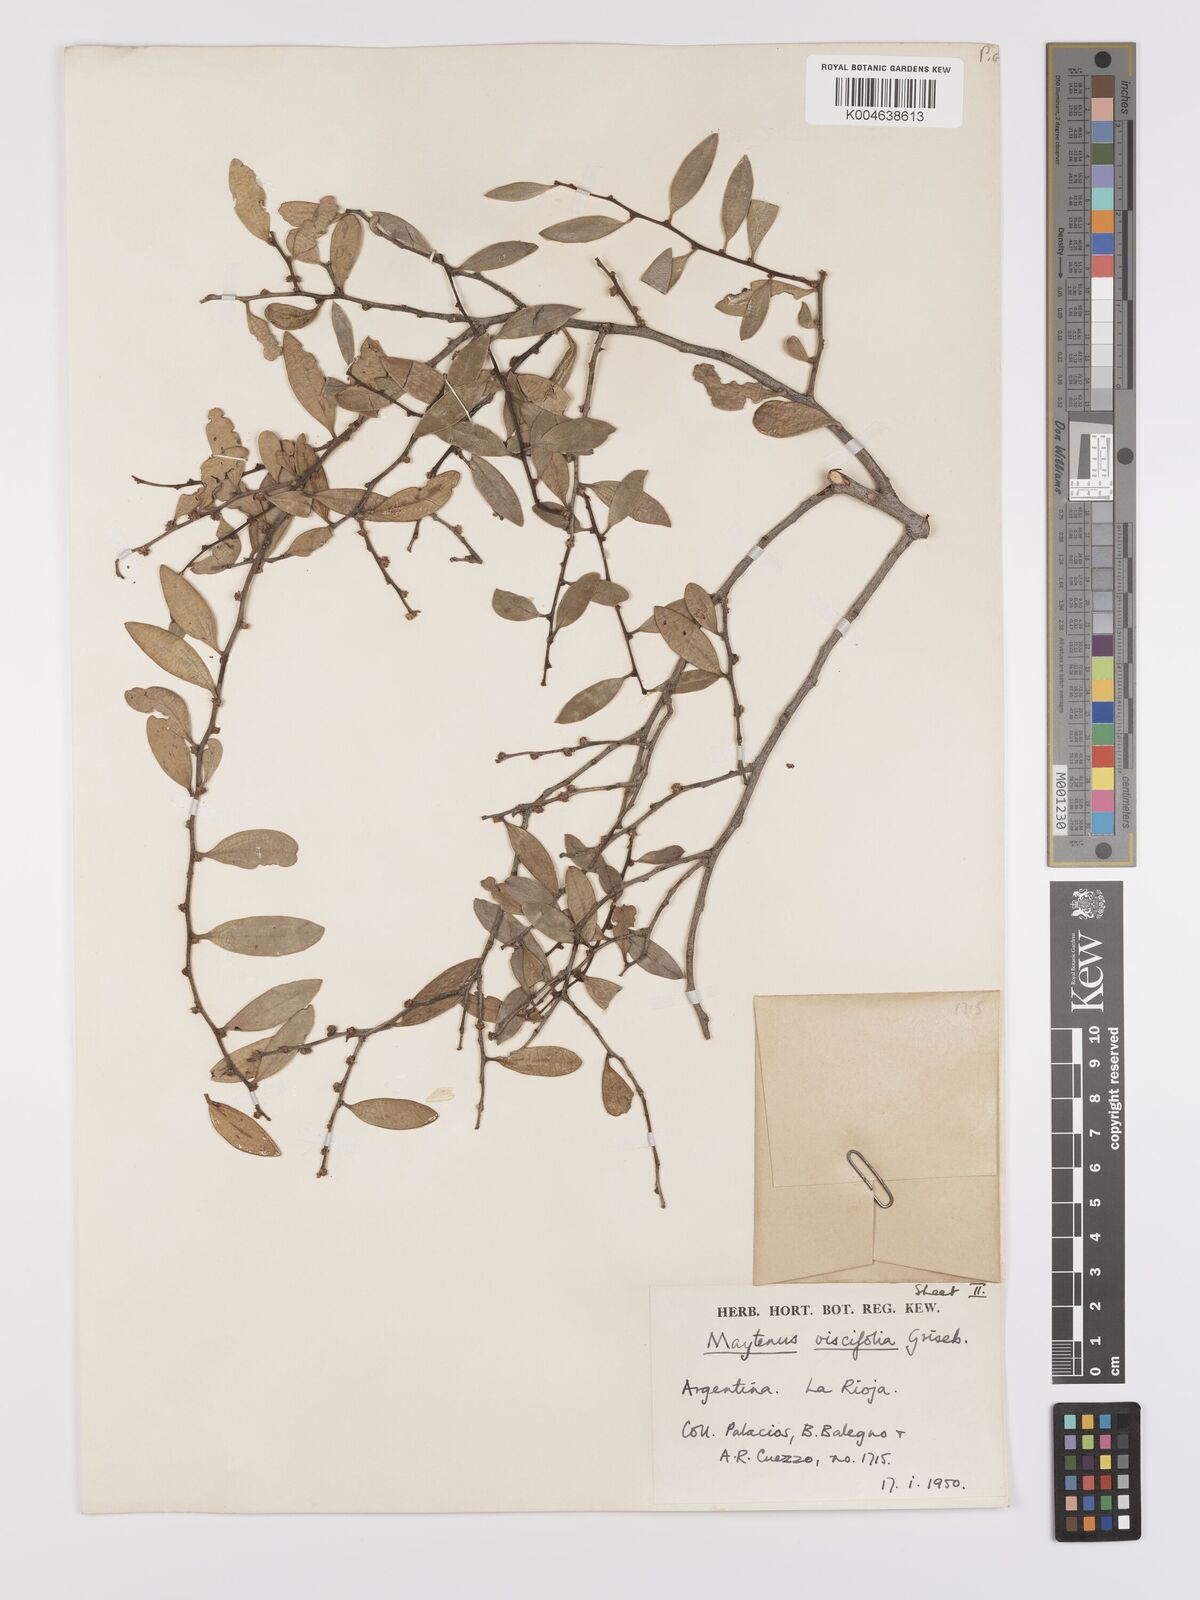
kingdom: Plantae
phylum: Tracheophyta
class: Magnoliopsida
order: Celastrales
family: Celastraceae
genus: Tricerma
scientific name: Tricerma viscifolium
